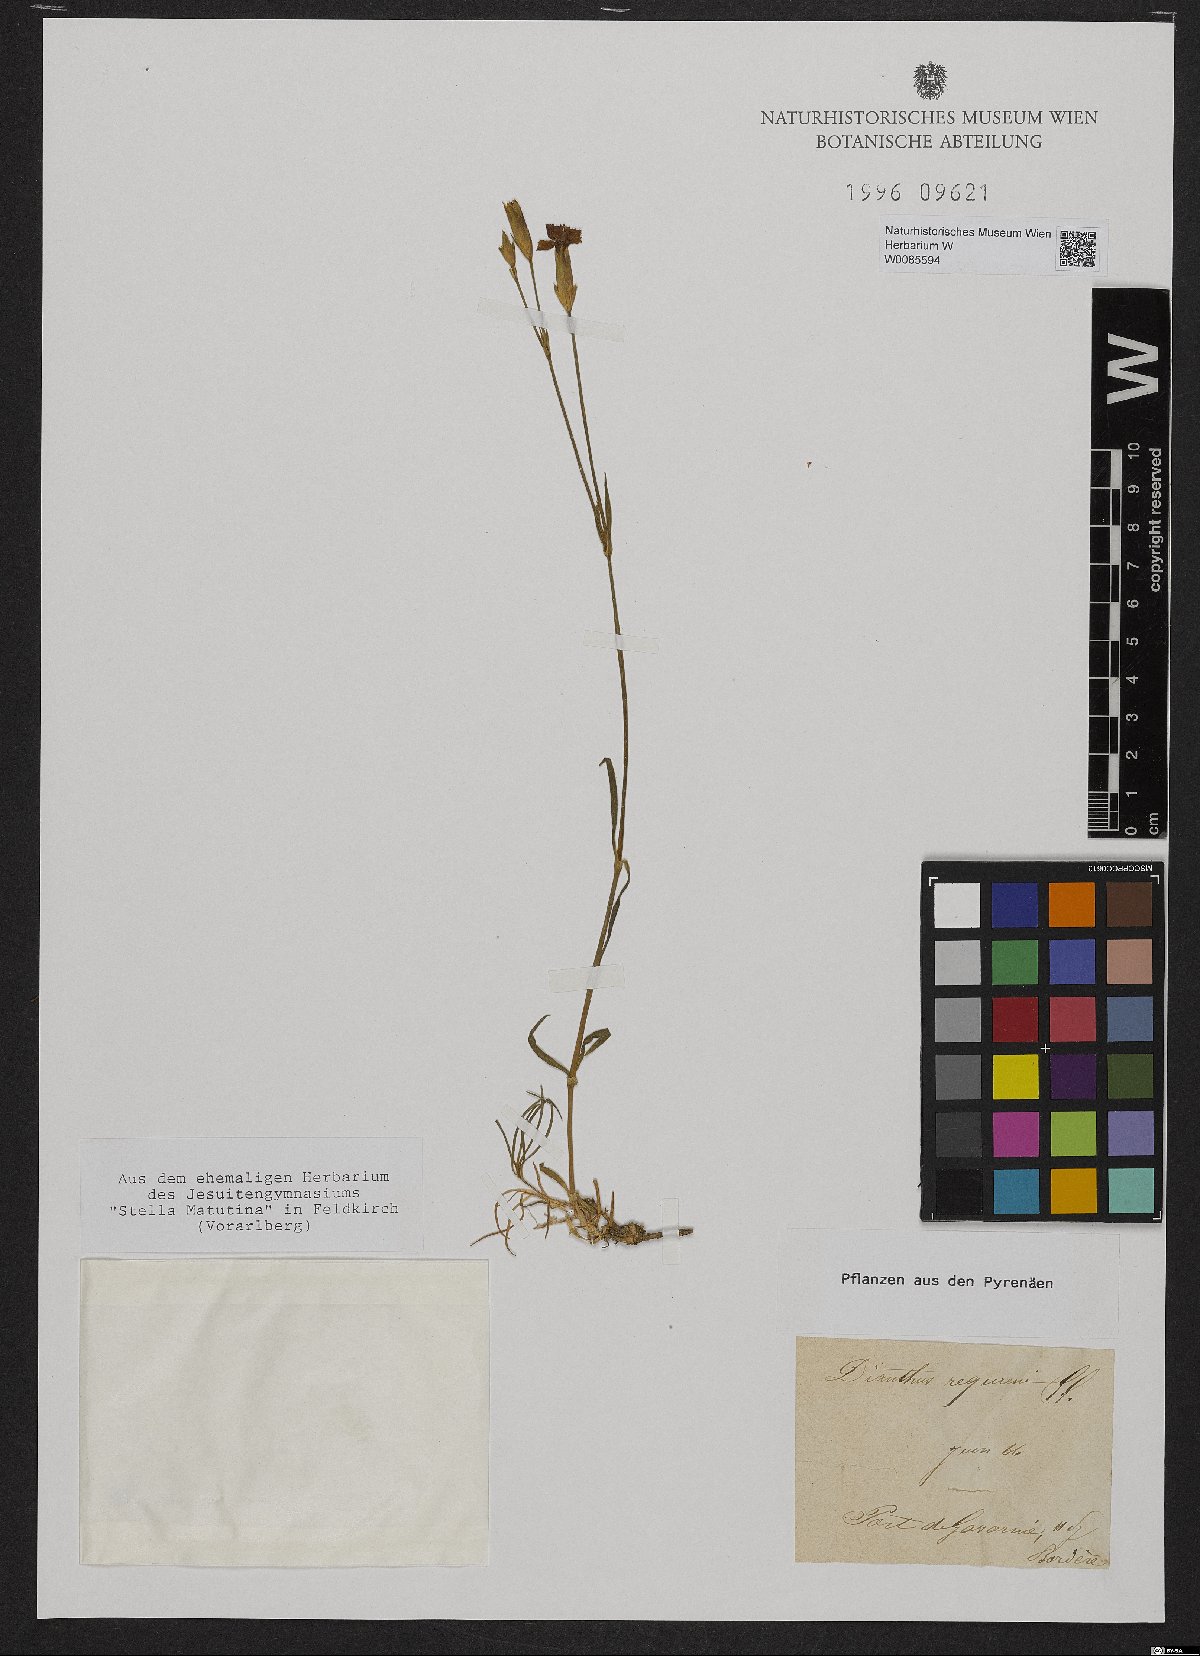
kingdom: Plantae
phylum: Tracheophyta
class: Magnoliopsida
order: Caryophyllales
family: Caryophyllaceae
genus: Dianthus
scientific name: Dianthus seguieri
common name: Ragged pink
